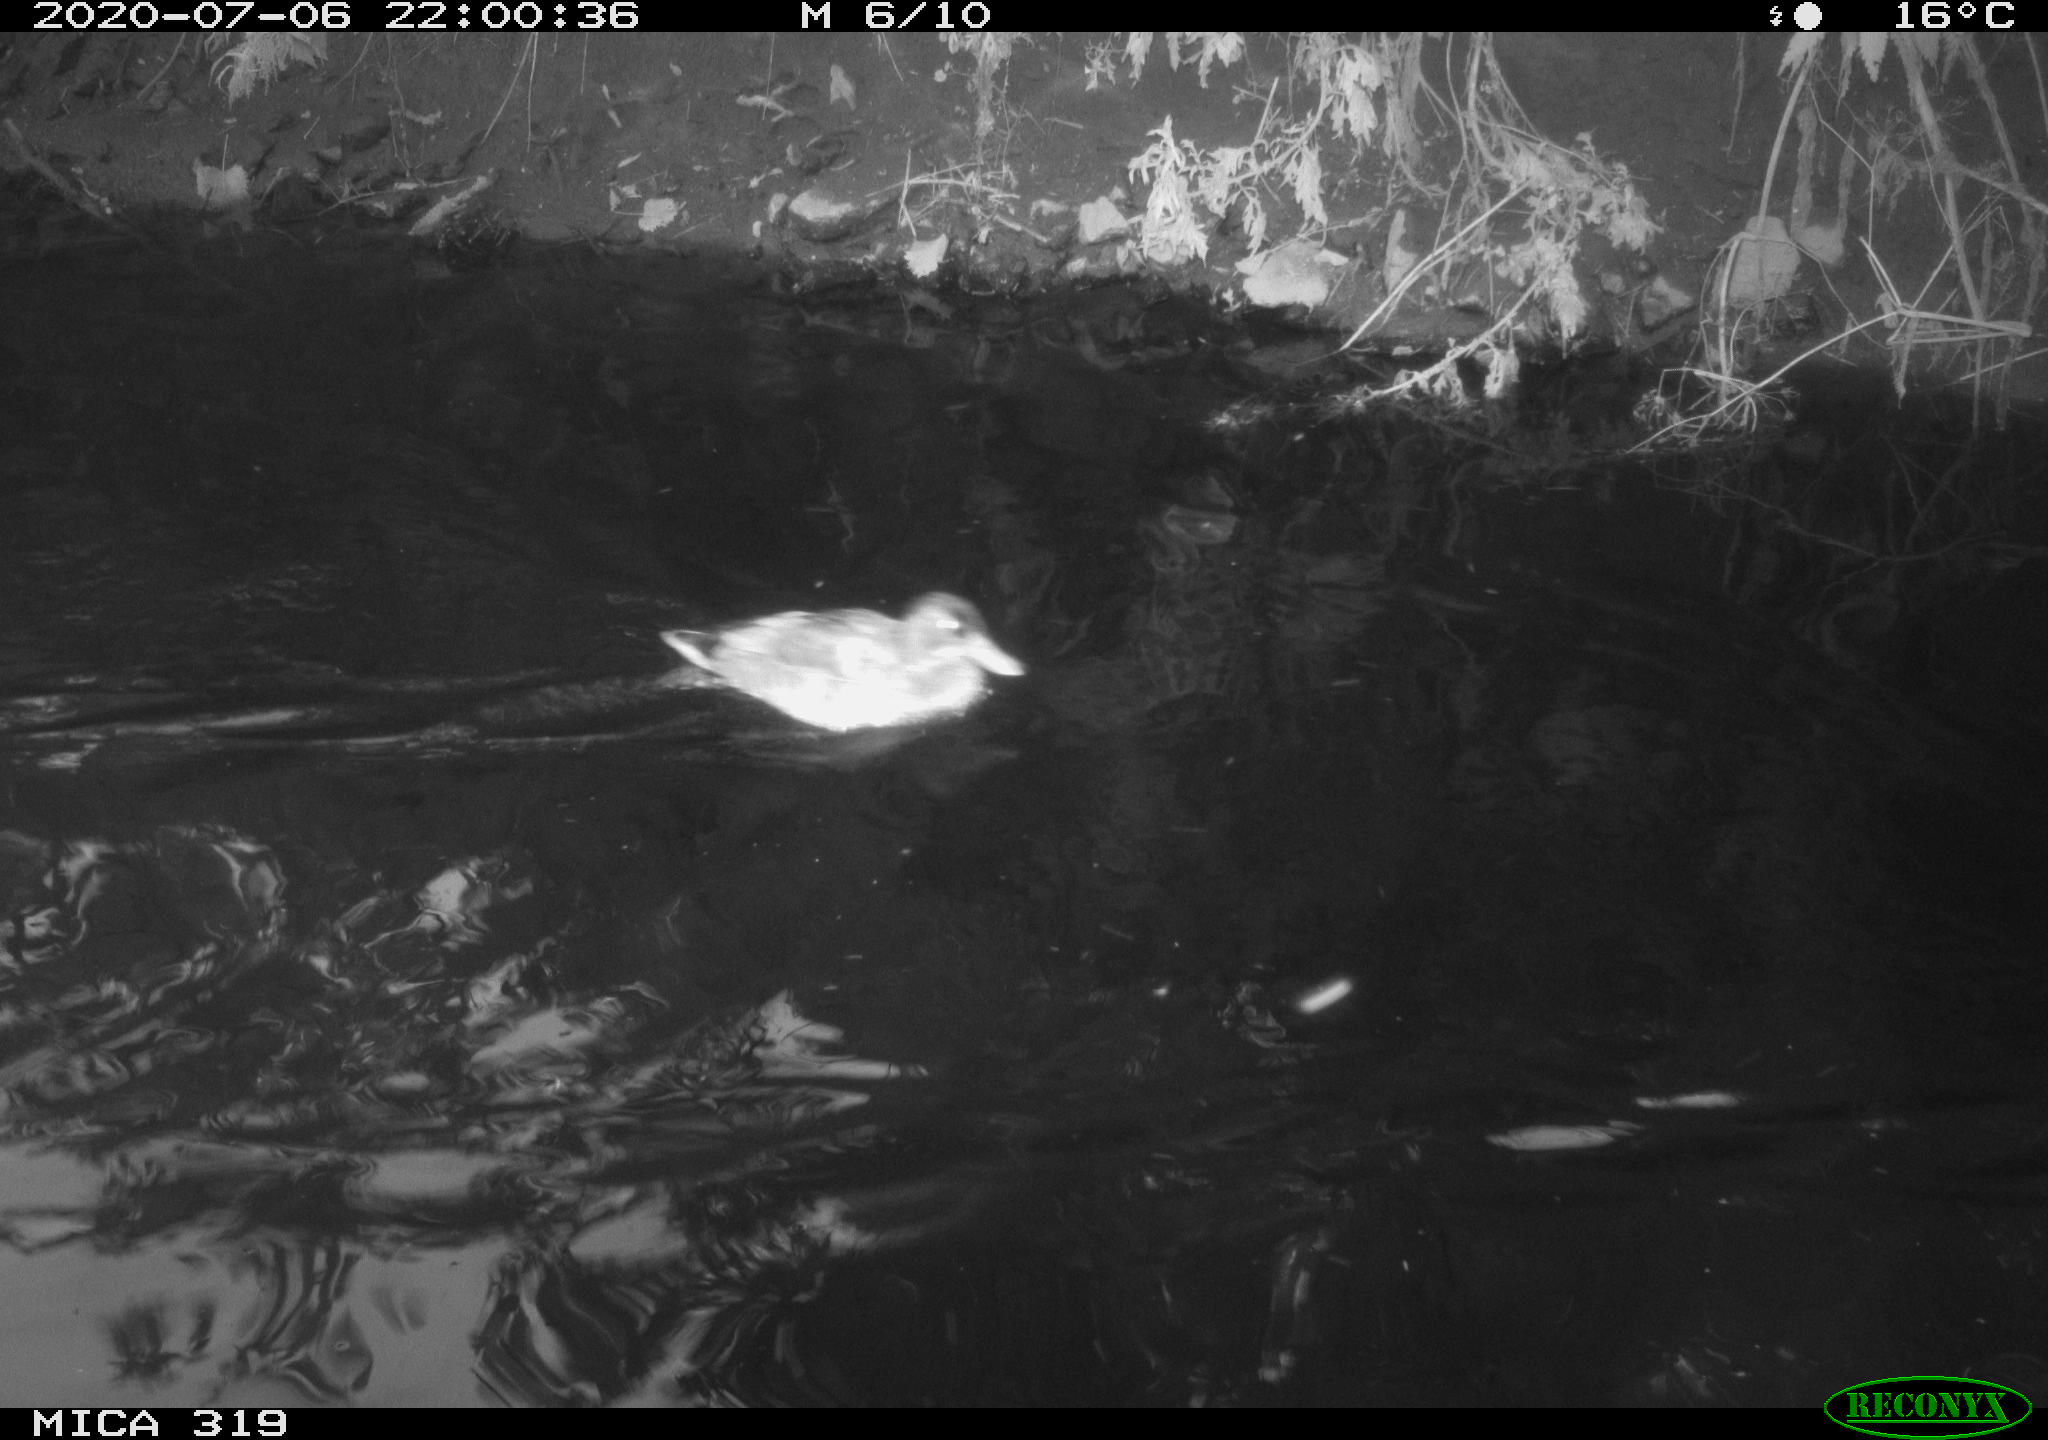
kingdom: Animalia
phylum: Chordata
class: Aves
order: Anseriformes
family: Anatidae
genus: Anas
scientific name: Anas platyrhynchos
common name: Mallard
